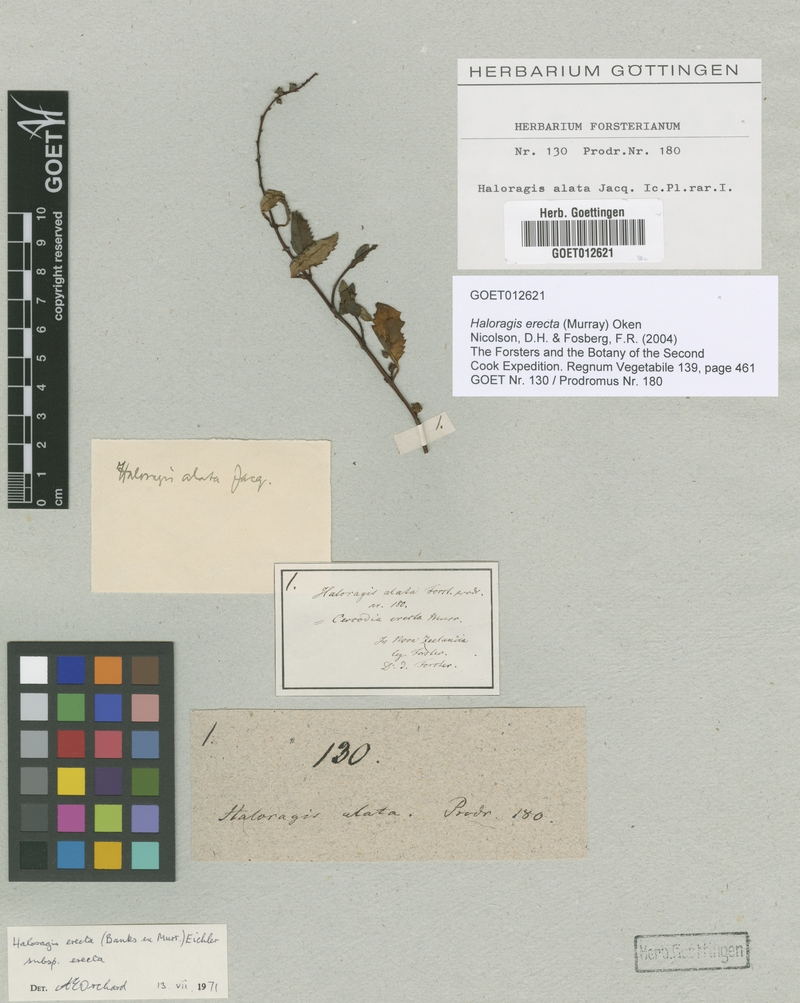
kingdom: Plantae
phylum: Tracheophyta
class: Magnoliopsida
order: Saxifragales
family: Haloragaceae
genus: Haloragis
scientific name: Haloragis erecta
